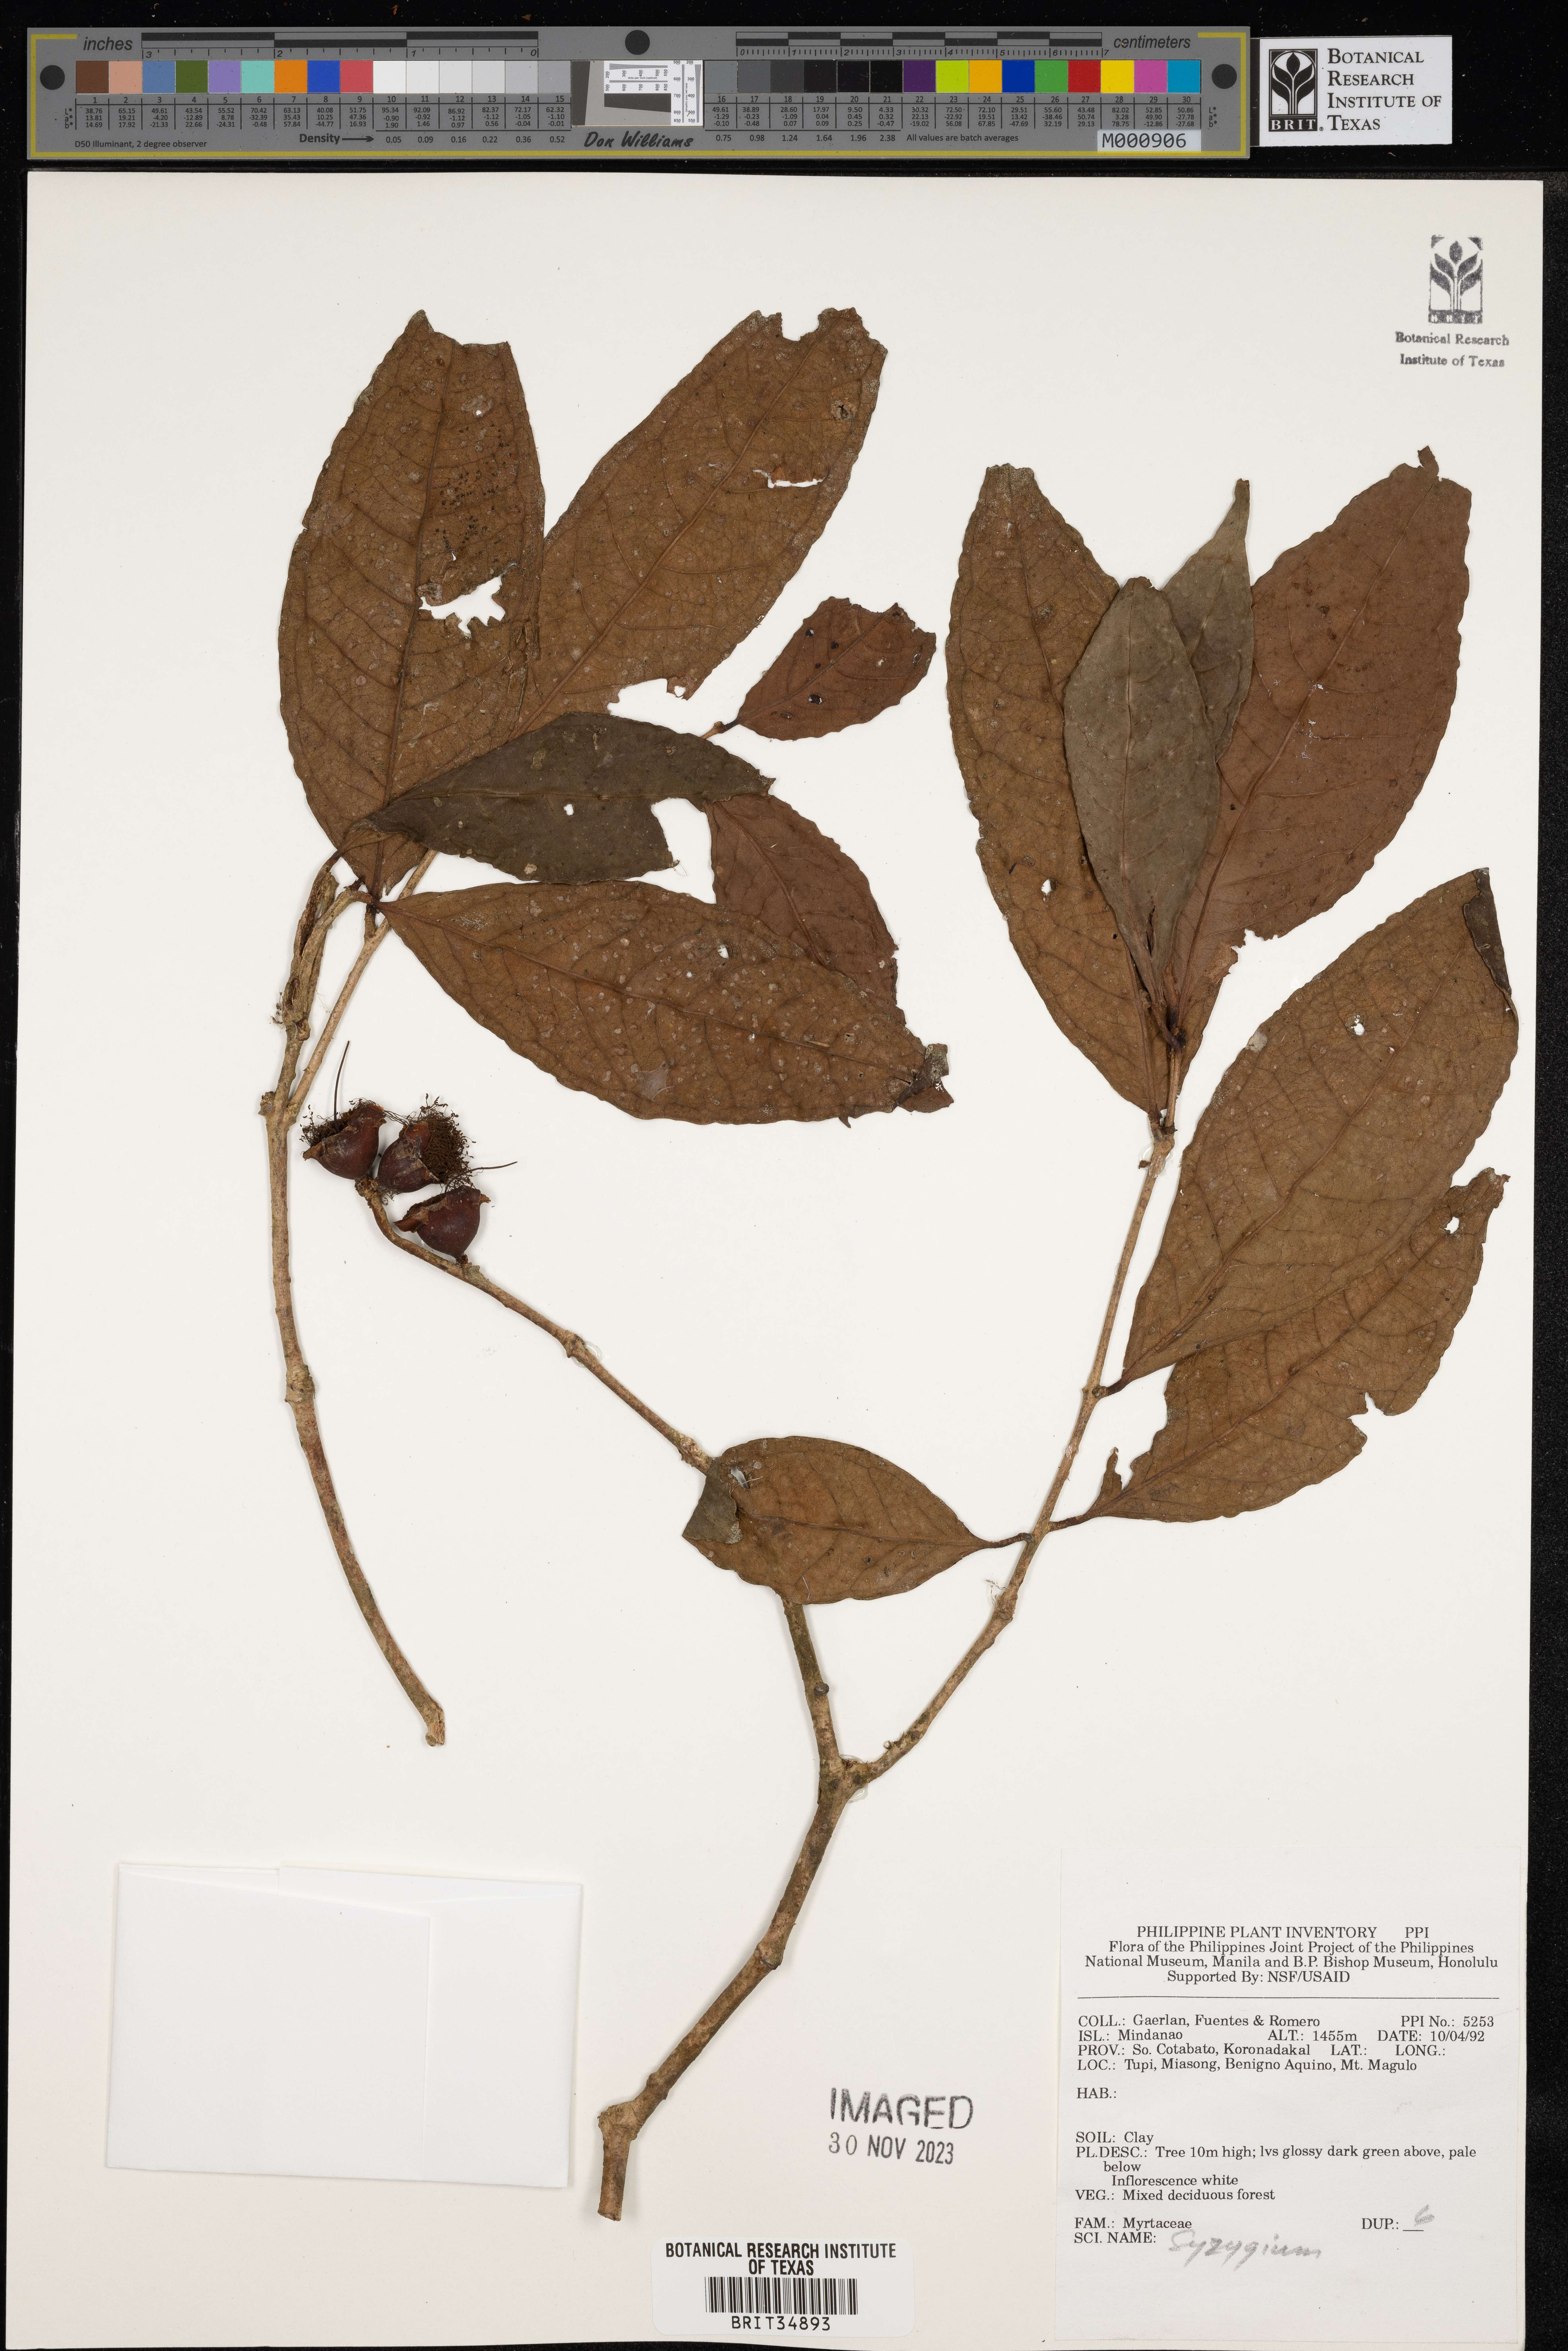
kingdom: Plantae
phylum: Tracheophyta
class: Magnoliopsida
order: Myrtales
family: Myrtaceae
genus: Syzygium
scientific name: Syzygium
